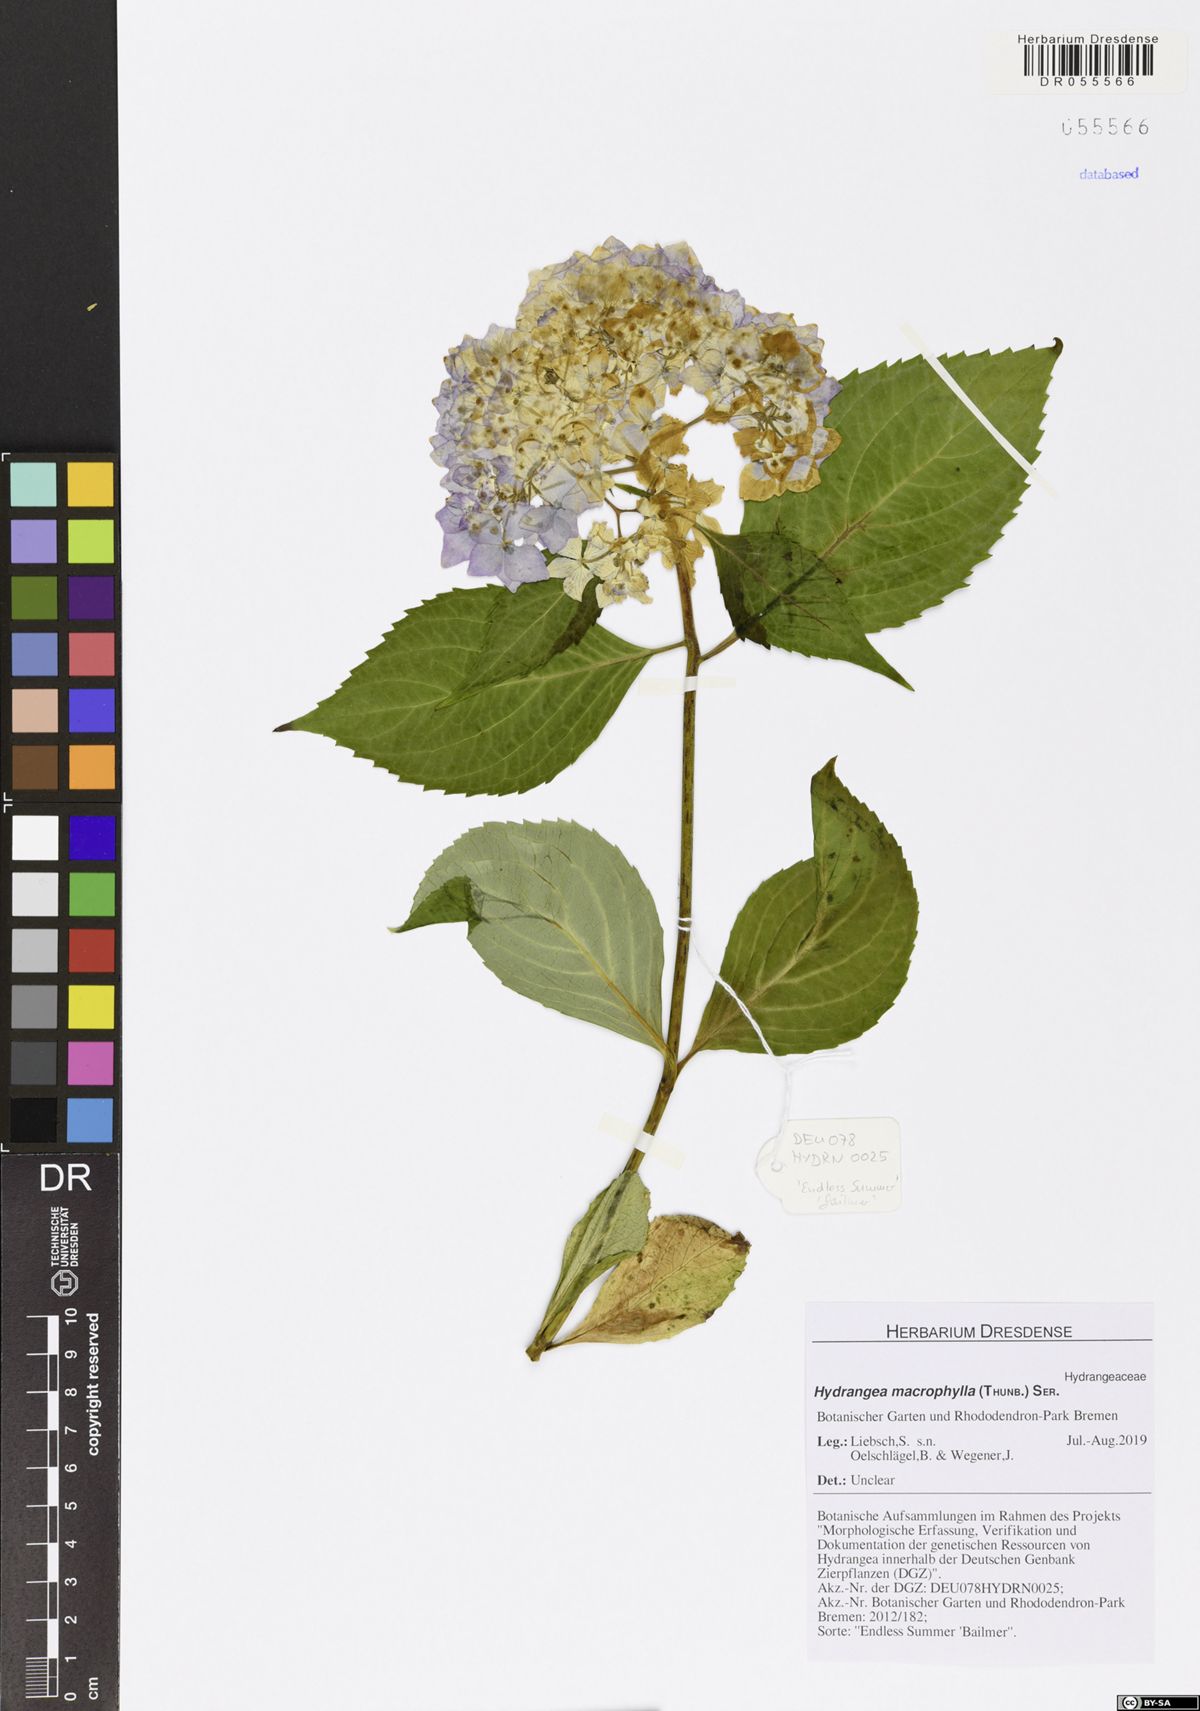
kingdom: Plantae
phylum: Tracheophyta
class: Magnoliopsida
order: Cornales
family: Hydrangeaceae
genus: Hydrangea
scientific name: Hydrangea macrophylla
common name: Hydrangea
